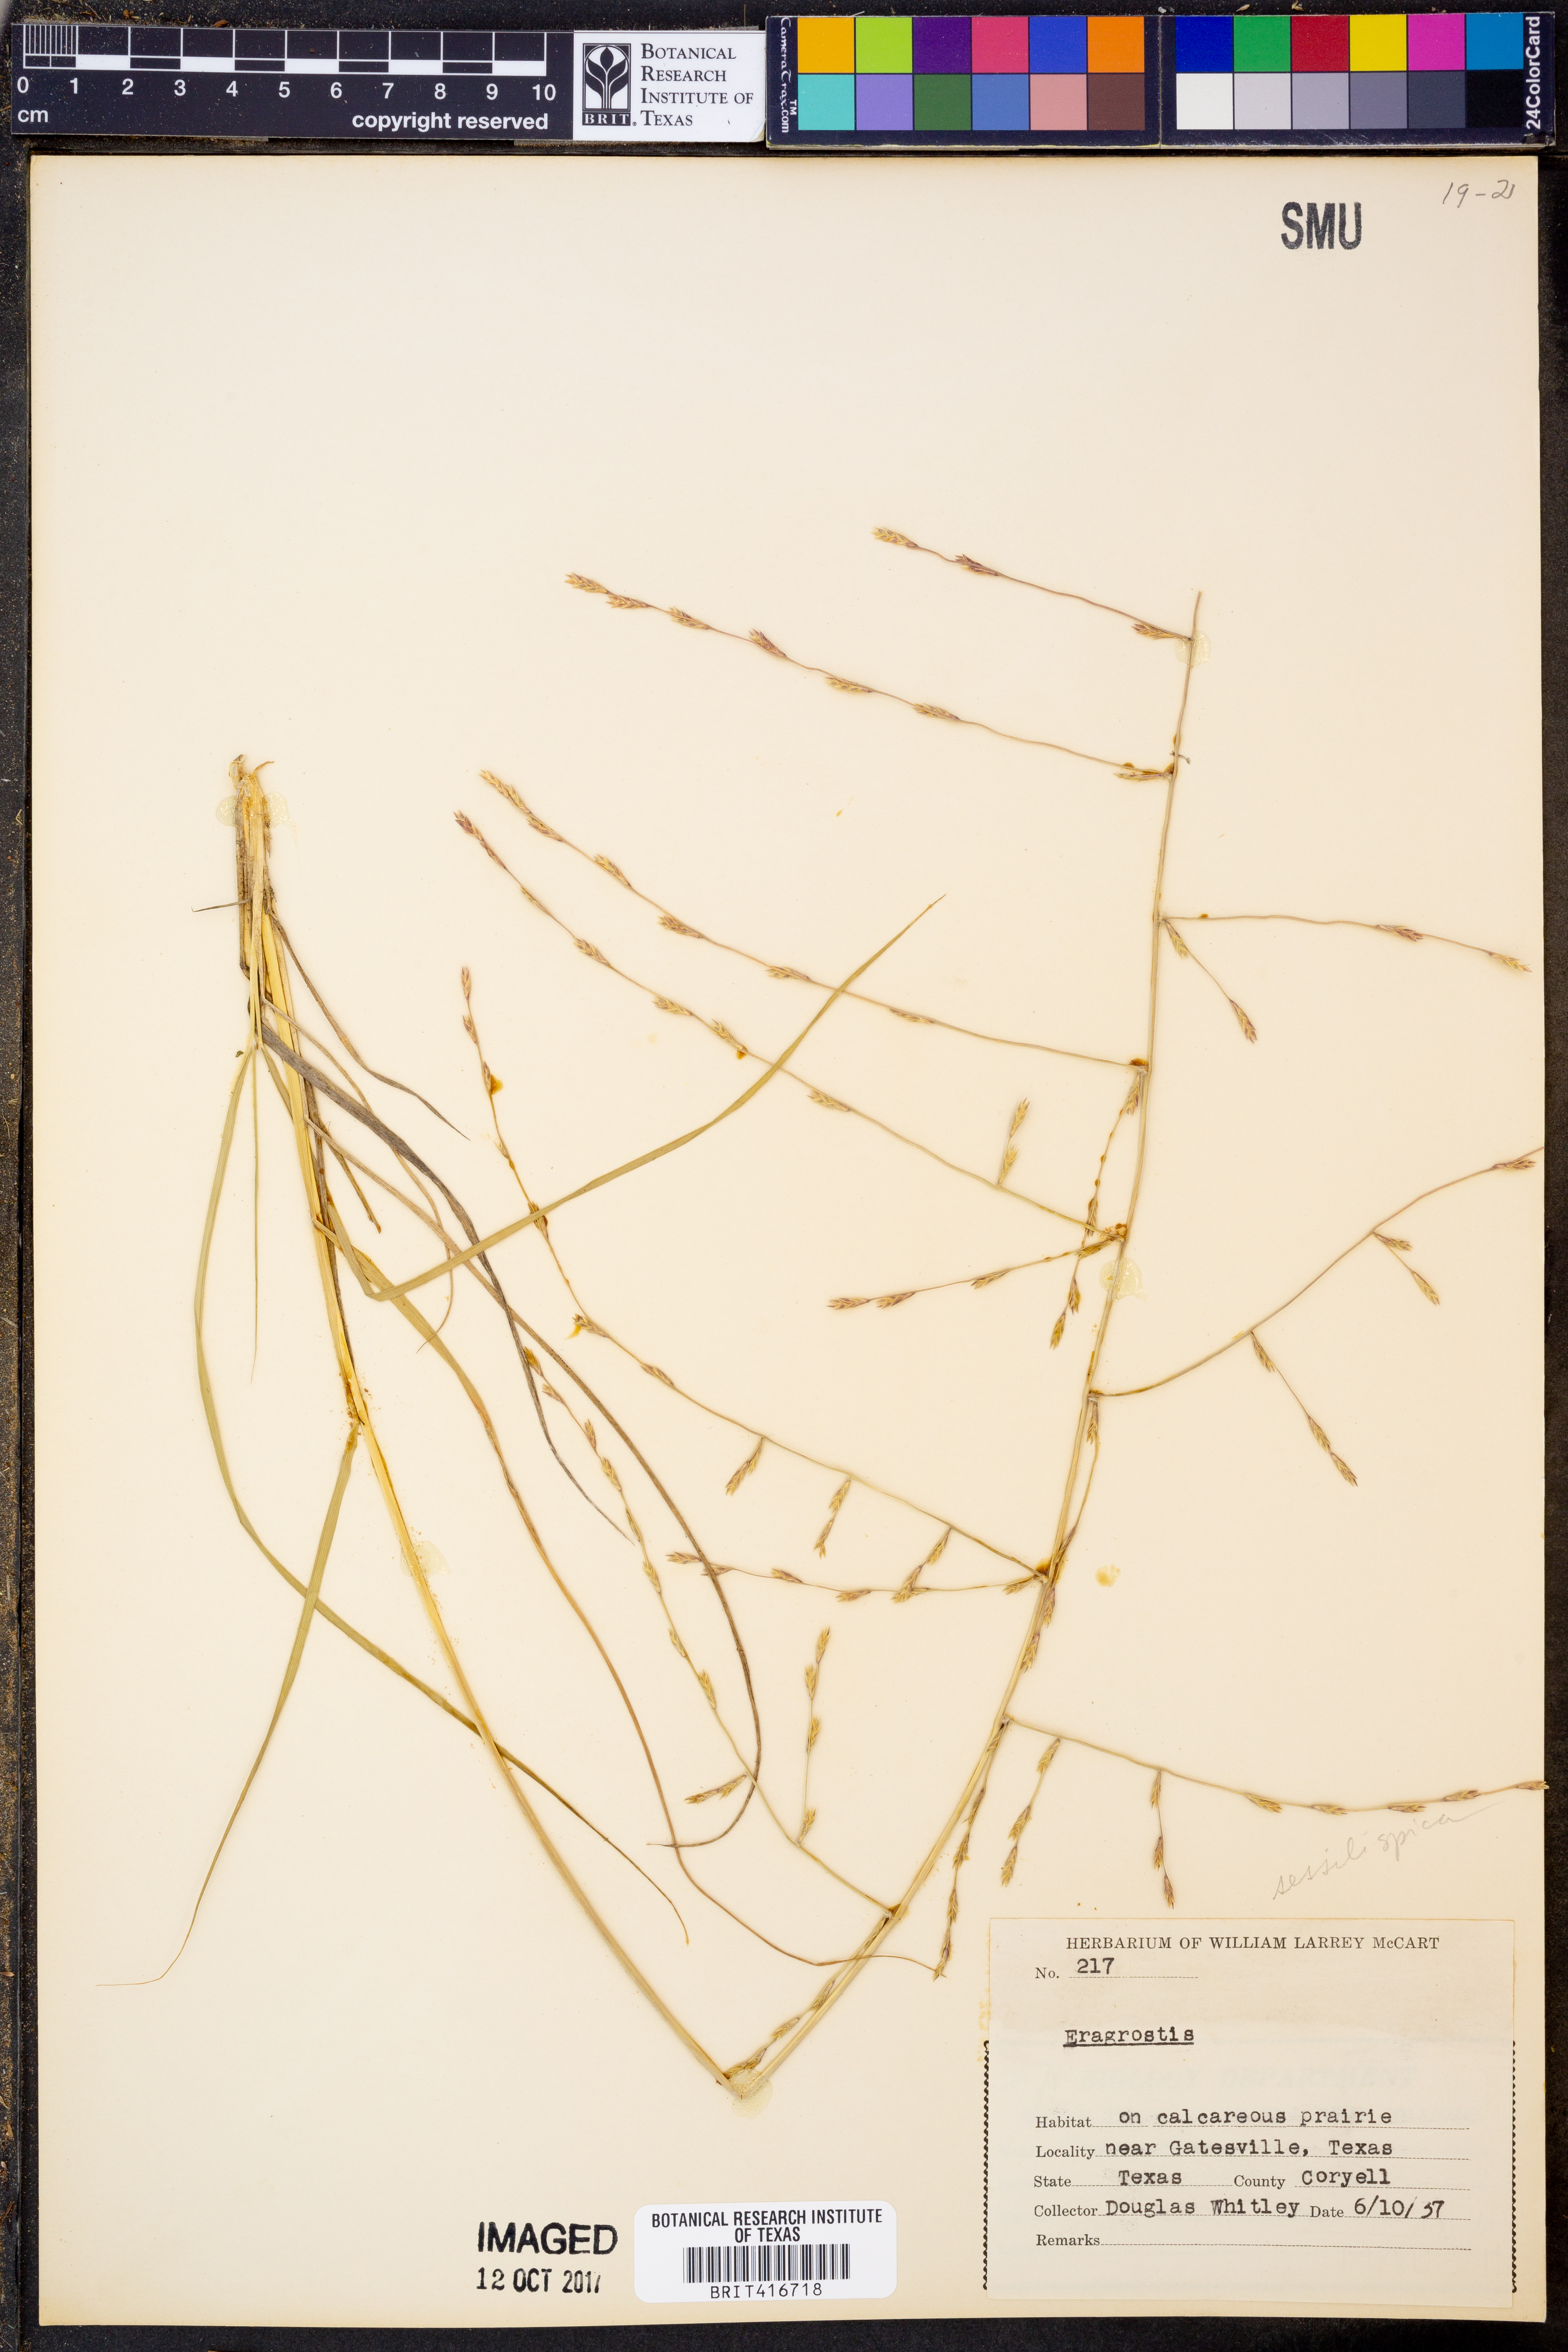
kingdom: Plantae
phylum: Tracheophyta
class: Liliopsida
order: Poales
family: Poaceae
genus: Eragrostis
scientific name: Eragrostis sessilispica
